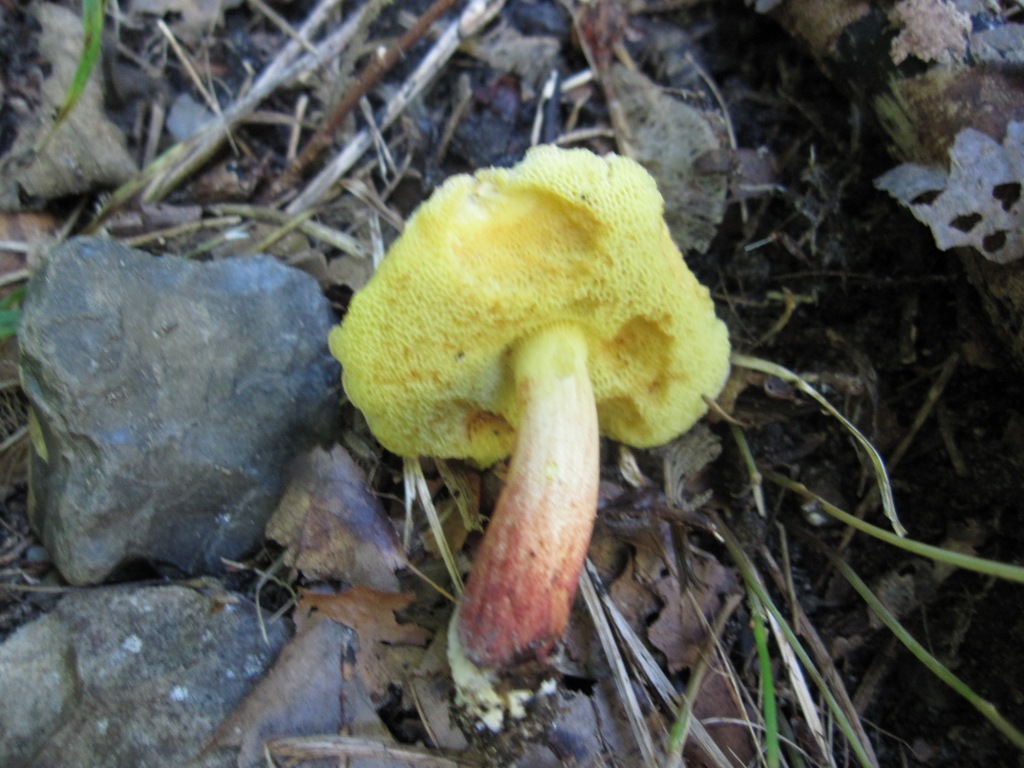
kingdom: Fungi
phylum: Basidiomycota
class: Agaricomycetes
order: Boletales
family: Boletaceae
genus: Xerocomellus
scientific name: Xerocomellus chrysenteron
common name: rødsprukken rørhat
